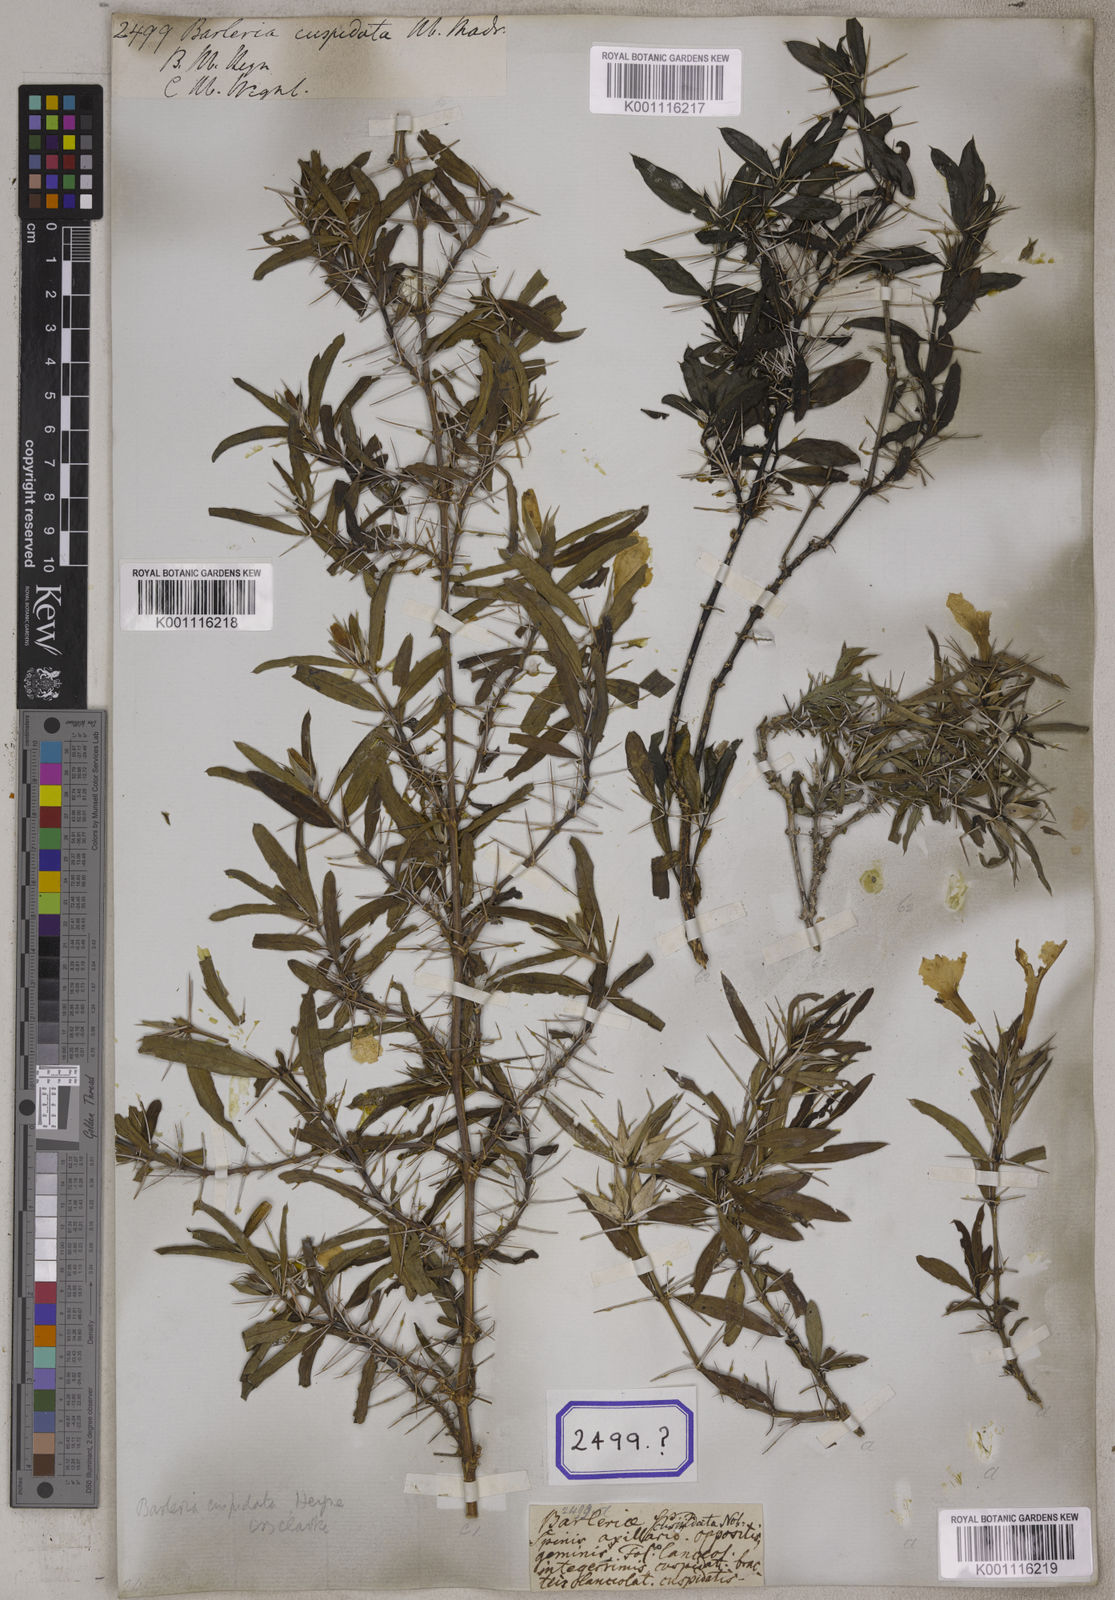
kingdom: Plantae
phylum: Tracheophyta
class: Magnoliopsida
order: Lamiales
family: Acanthaceae
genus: Barleria
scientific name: Barleria cuspidata
